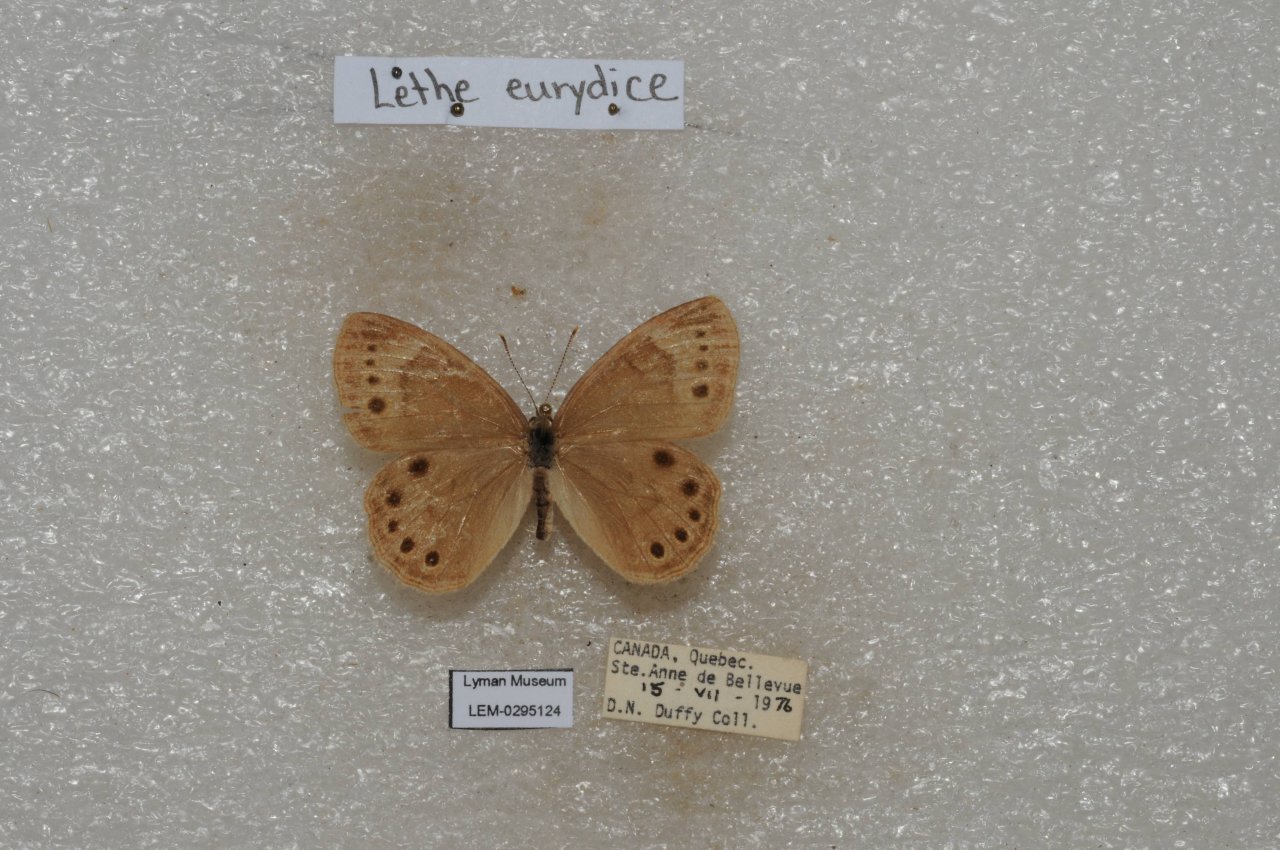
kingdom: Animalia
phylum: Arthropoda
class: Insecta
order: Lepidoptera
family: Nymphalidae
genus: Lethe
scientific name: Lethe eurydice
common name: Eyed Brown
